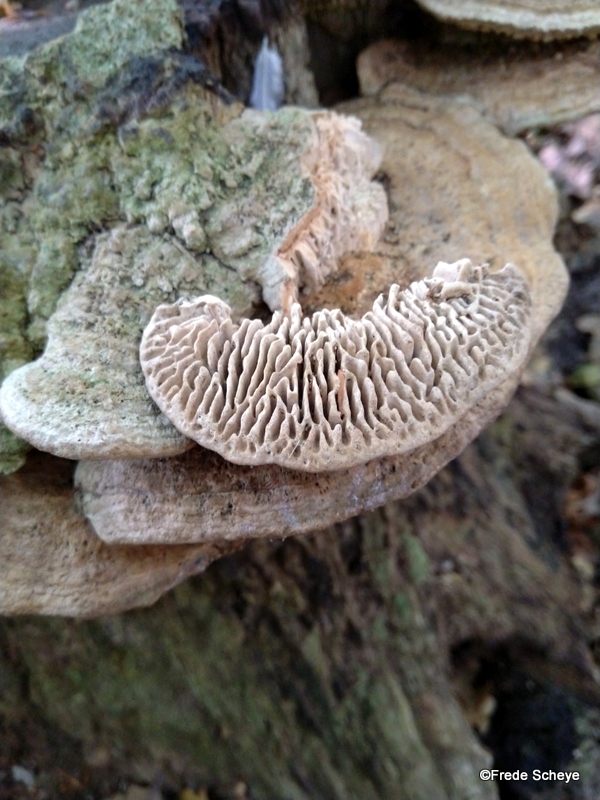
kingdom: Fungi
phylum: Basidiomycota
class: Agaricomycetes
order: Polyporales
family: Fomitopsidaceae
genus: Daedalea
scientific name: Daedalea quercina
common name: ege-labyrintsvamp
